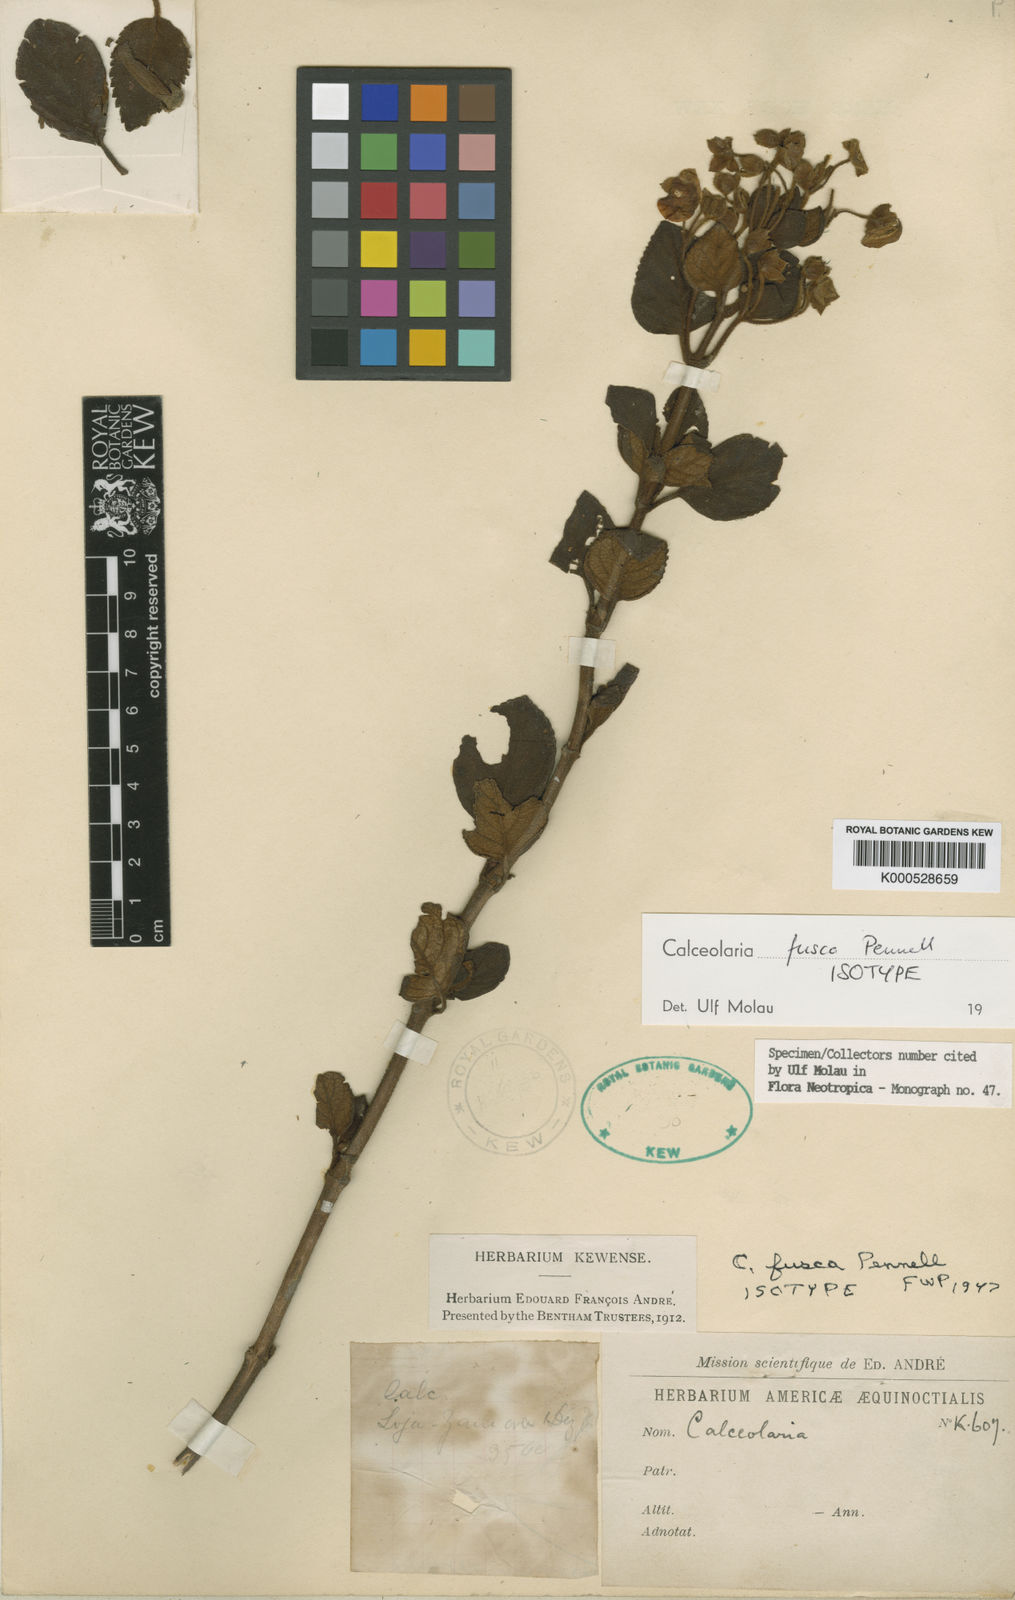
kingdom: Plantae
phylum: Tracheophyta
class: Magnoliopsida
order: Lamiales
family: Calceolariaceae
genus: Calceolaria
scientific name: Calceolaria fusca
